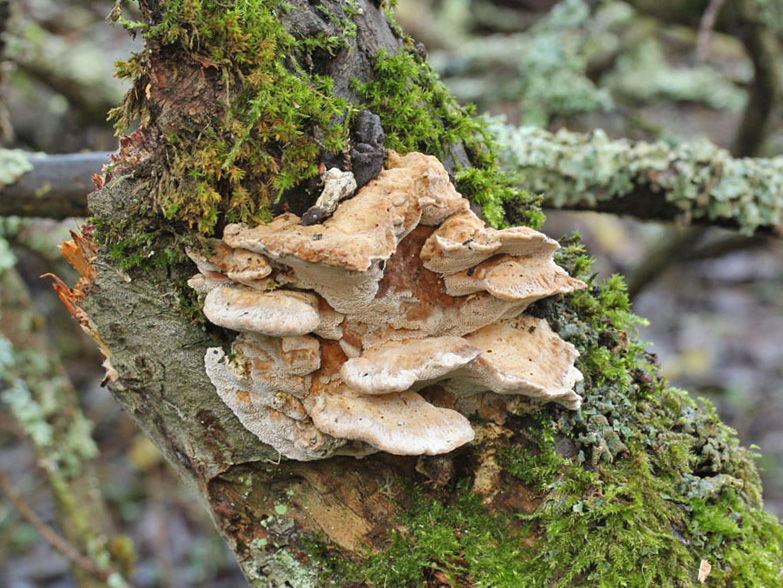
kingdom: Fungi
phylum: Basidiomycota
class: Agaricomycetes
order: Polyporales
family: Phanerochaetaceae
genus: Bjerkandera
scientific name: Bjerkandera fumosa
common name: grågul sodporesvamp
